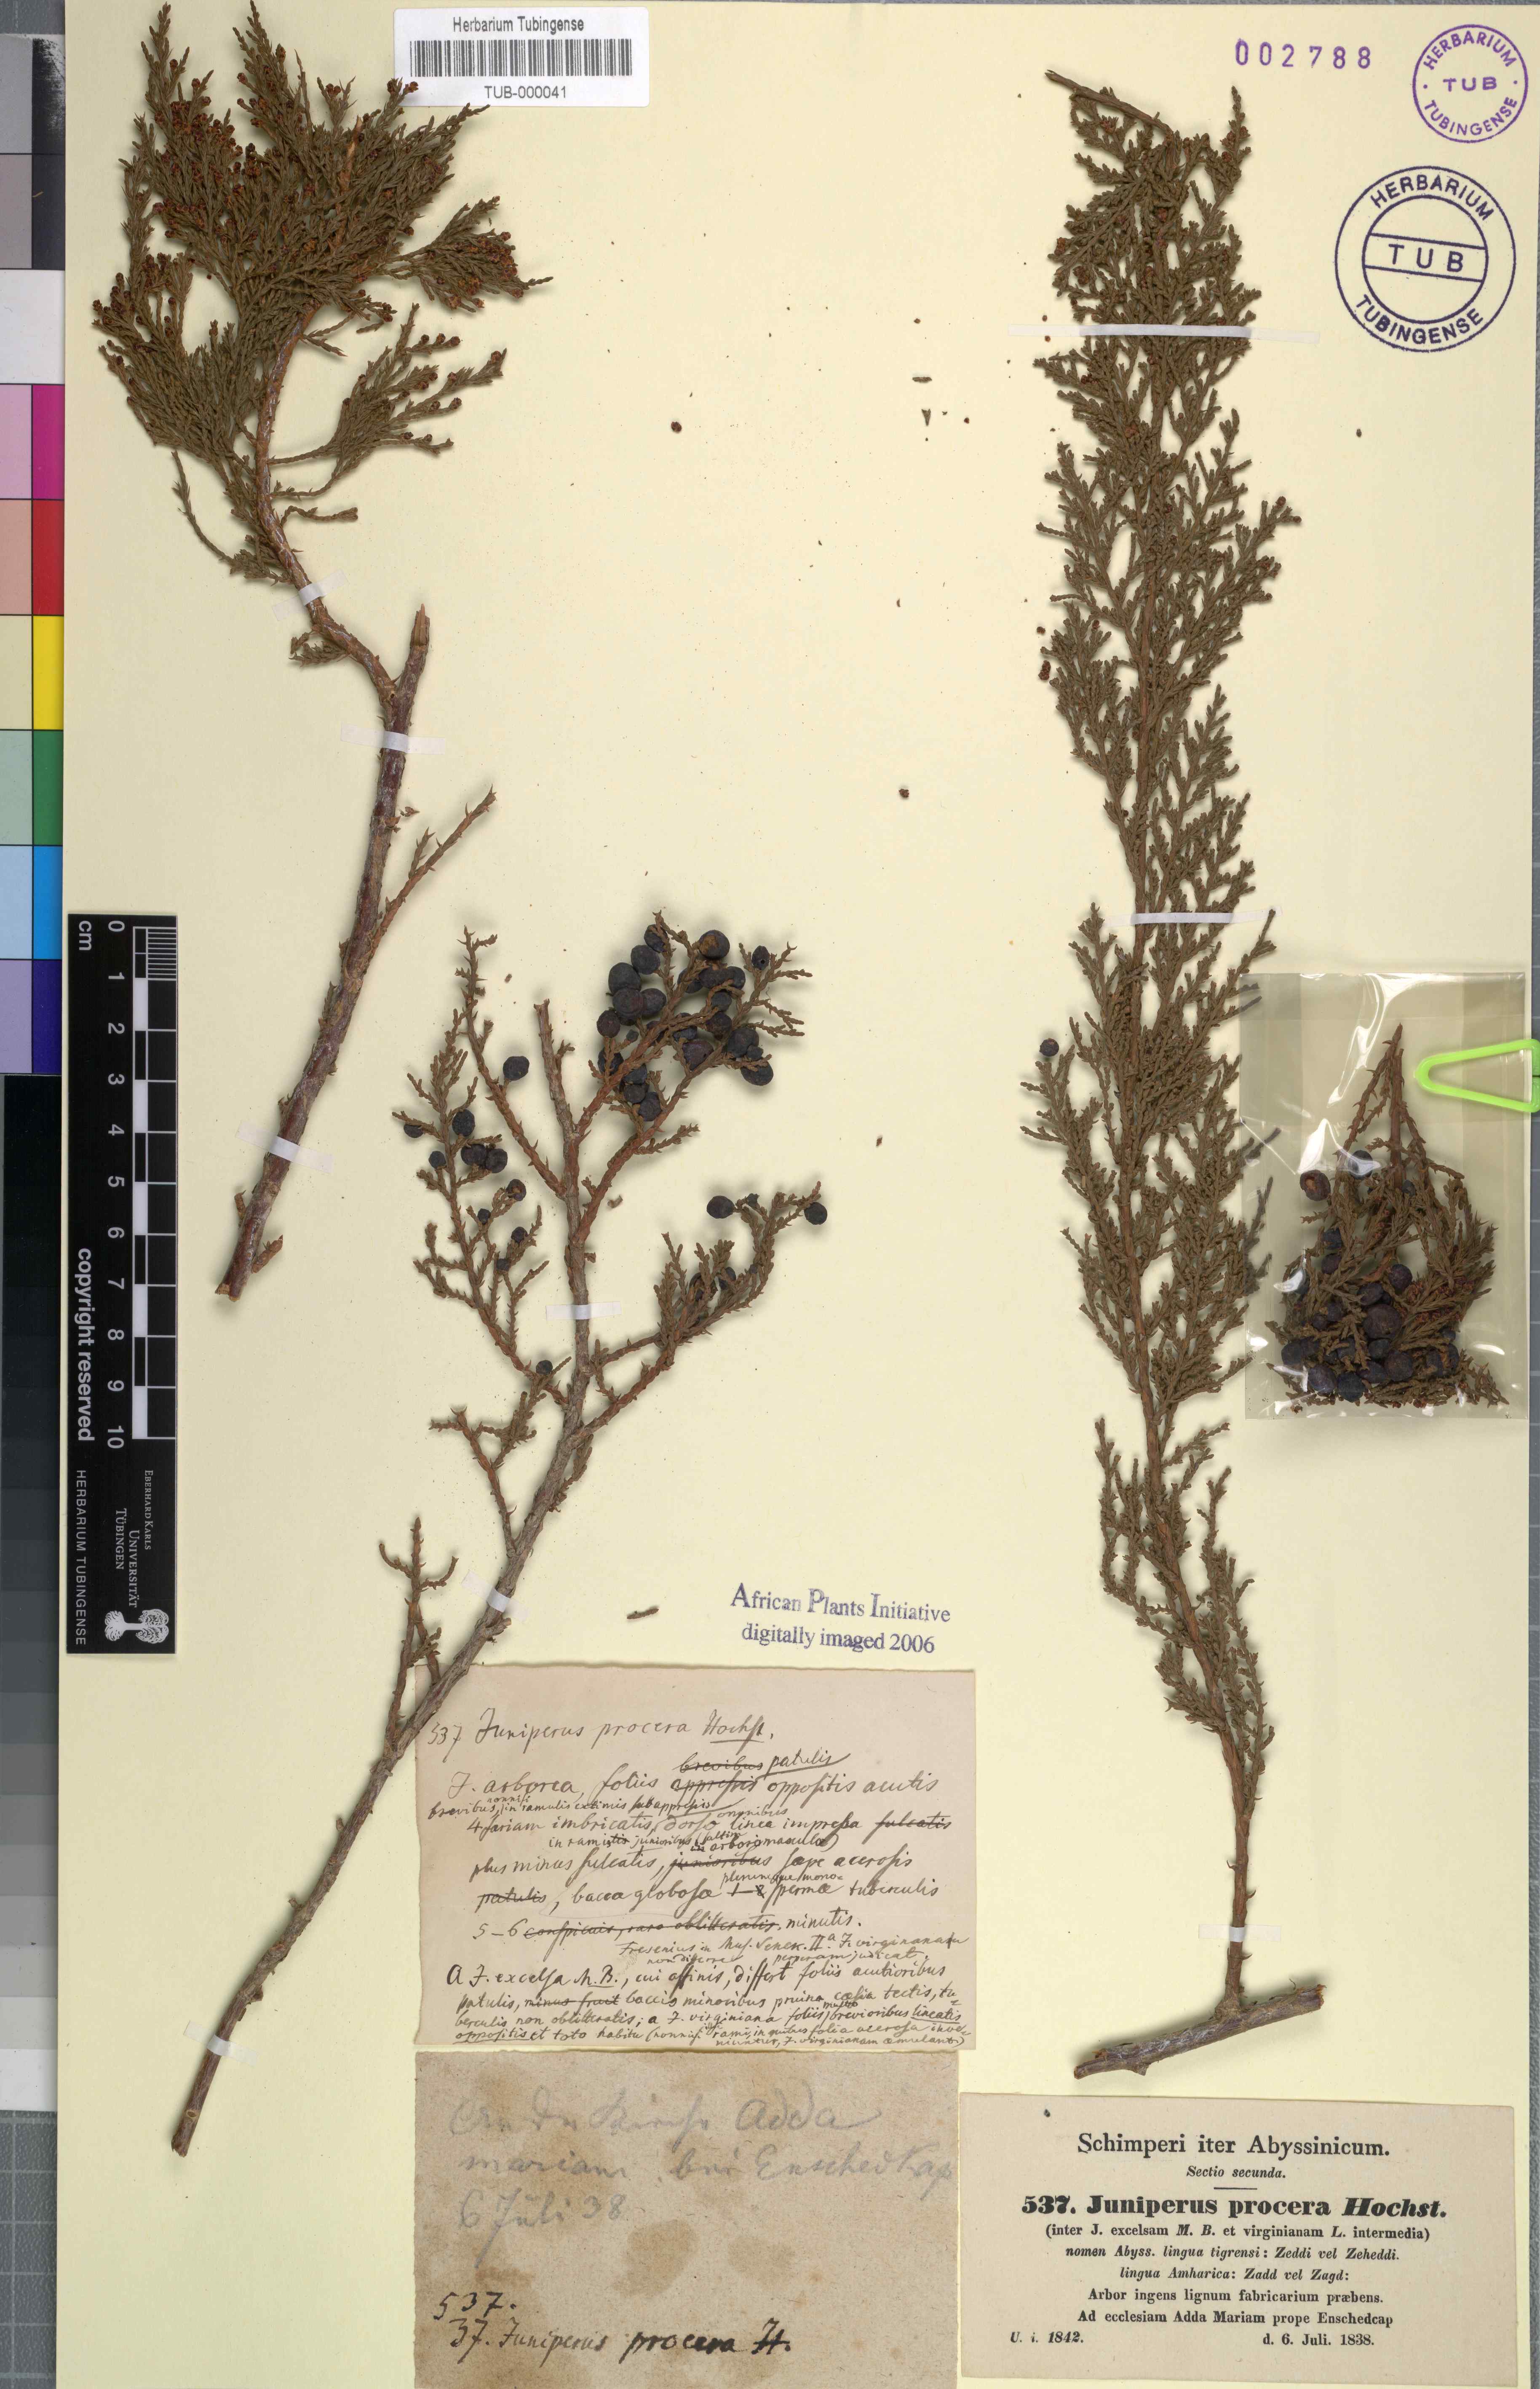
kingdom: Plantae
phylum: Tracheophyta
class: Pinopsida
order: Pinales
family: Cupressaceae
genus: Juniperus
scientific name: Juniperus procera
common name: African juniper
